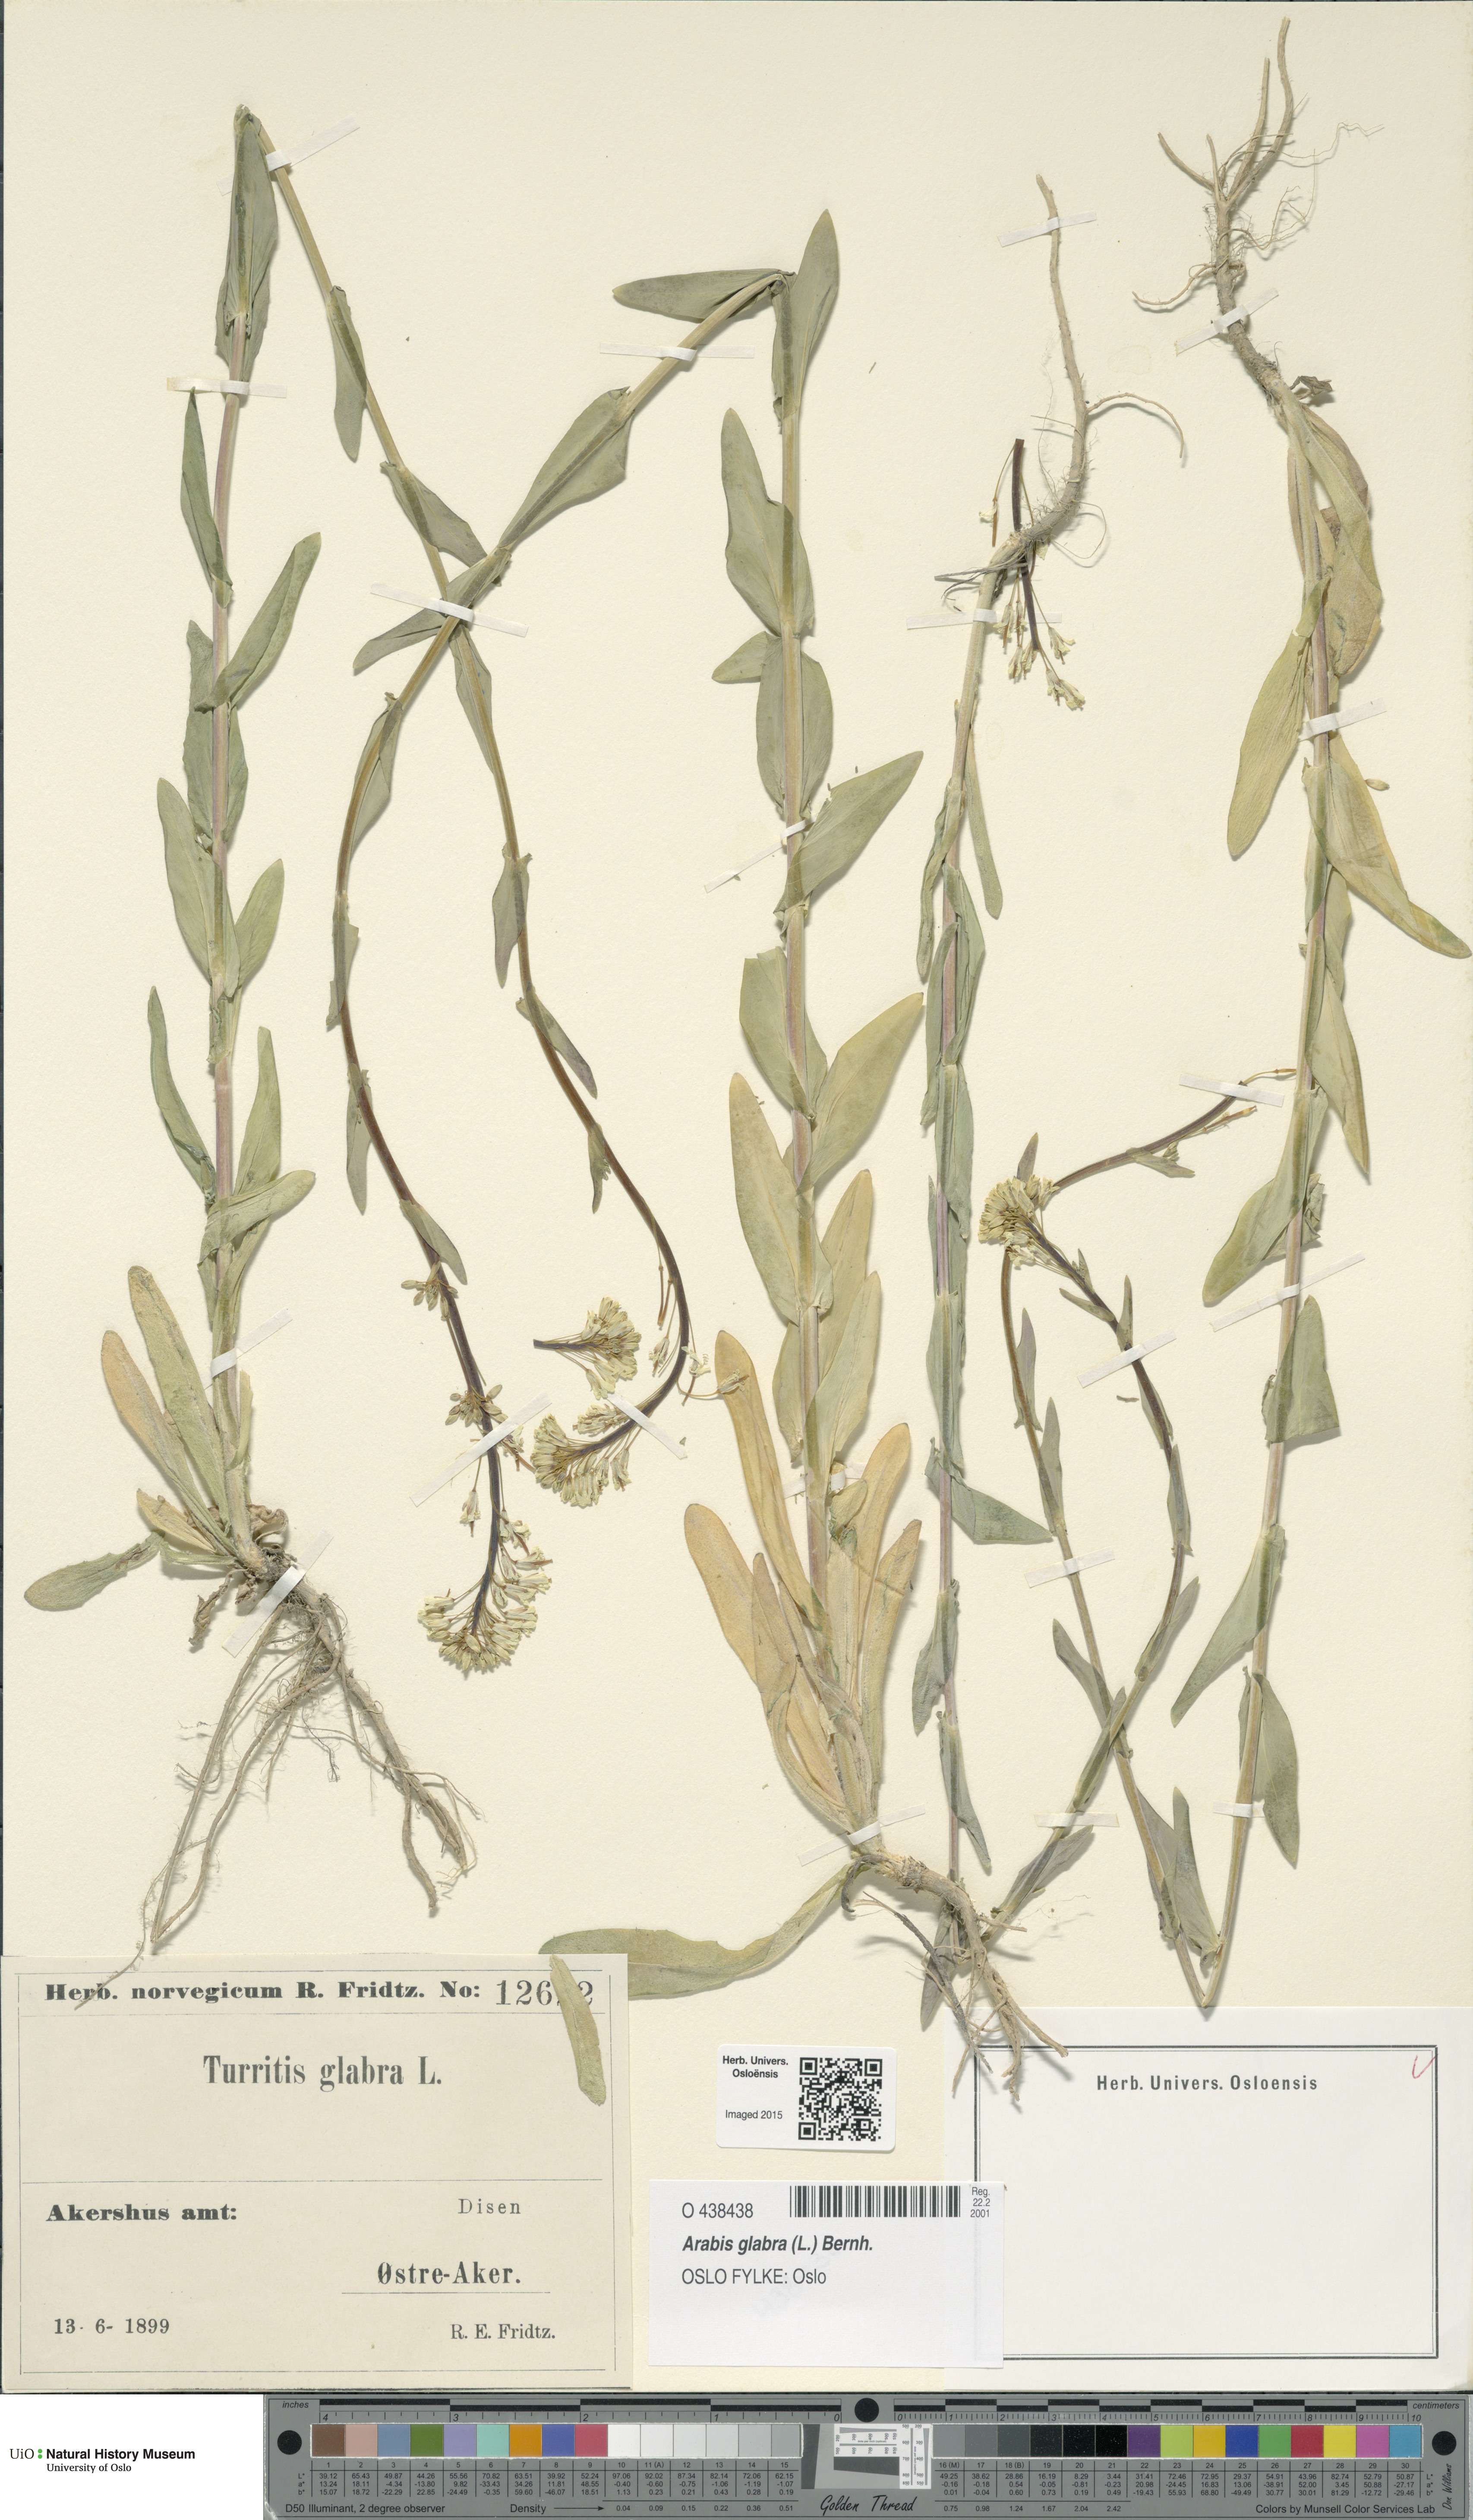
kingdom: Plantae
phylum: Tracheophyta
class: Magnoliopsida
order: Brassicales
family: Brassicaceae
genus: Turritis
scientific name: Turritis glabra
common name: Tower rockcress
